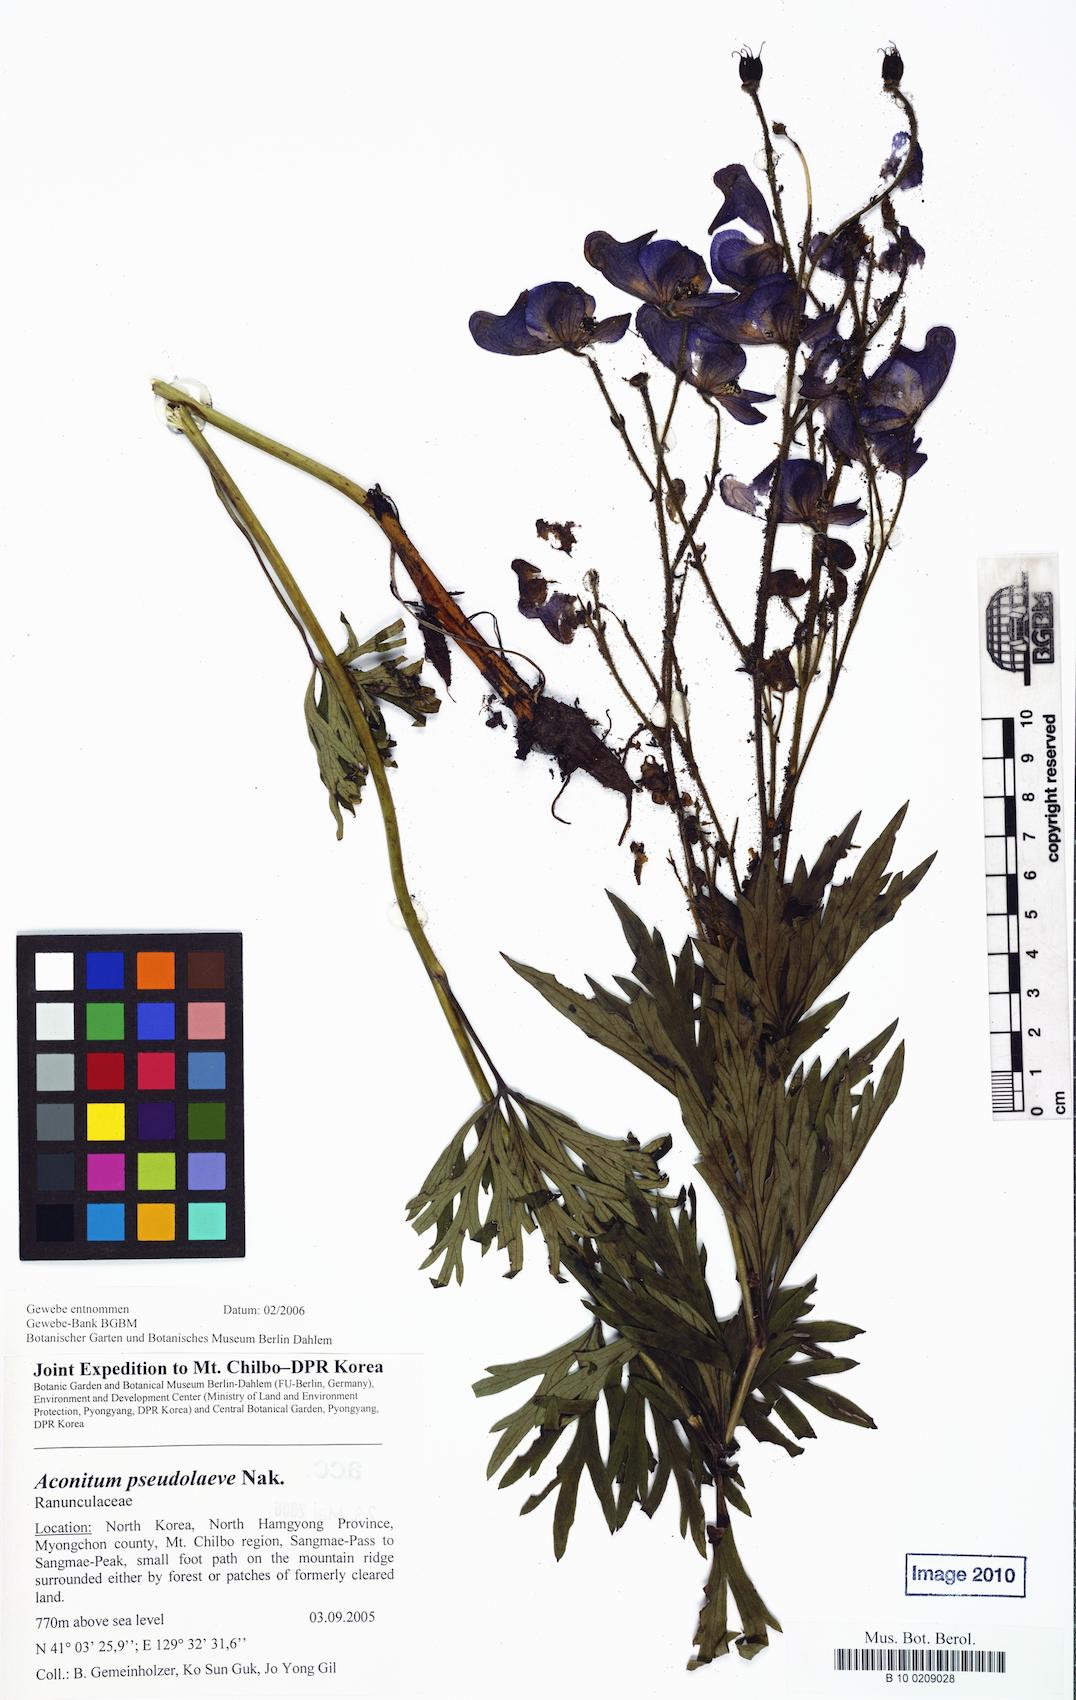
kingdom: Plantae
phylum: Tracheophyta
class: Magnoliopsida
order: Ranunculales
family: Ranunculaceae
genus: Aconitum
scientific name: Aconitum pseudolaeve
